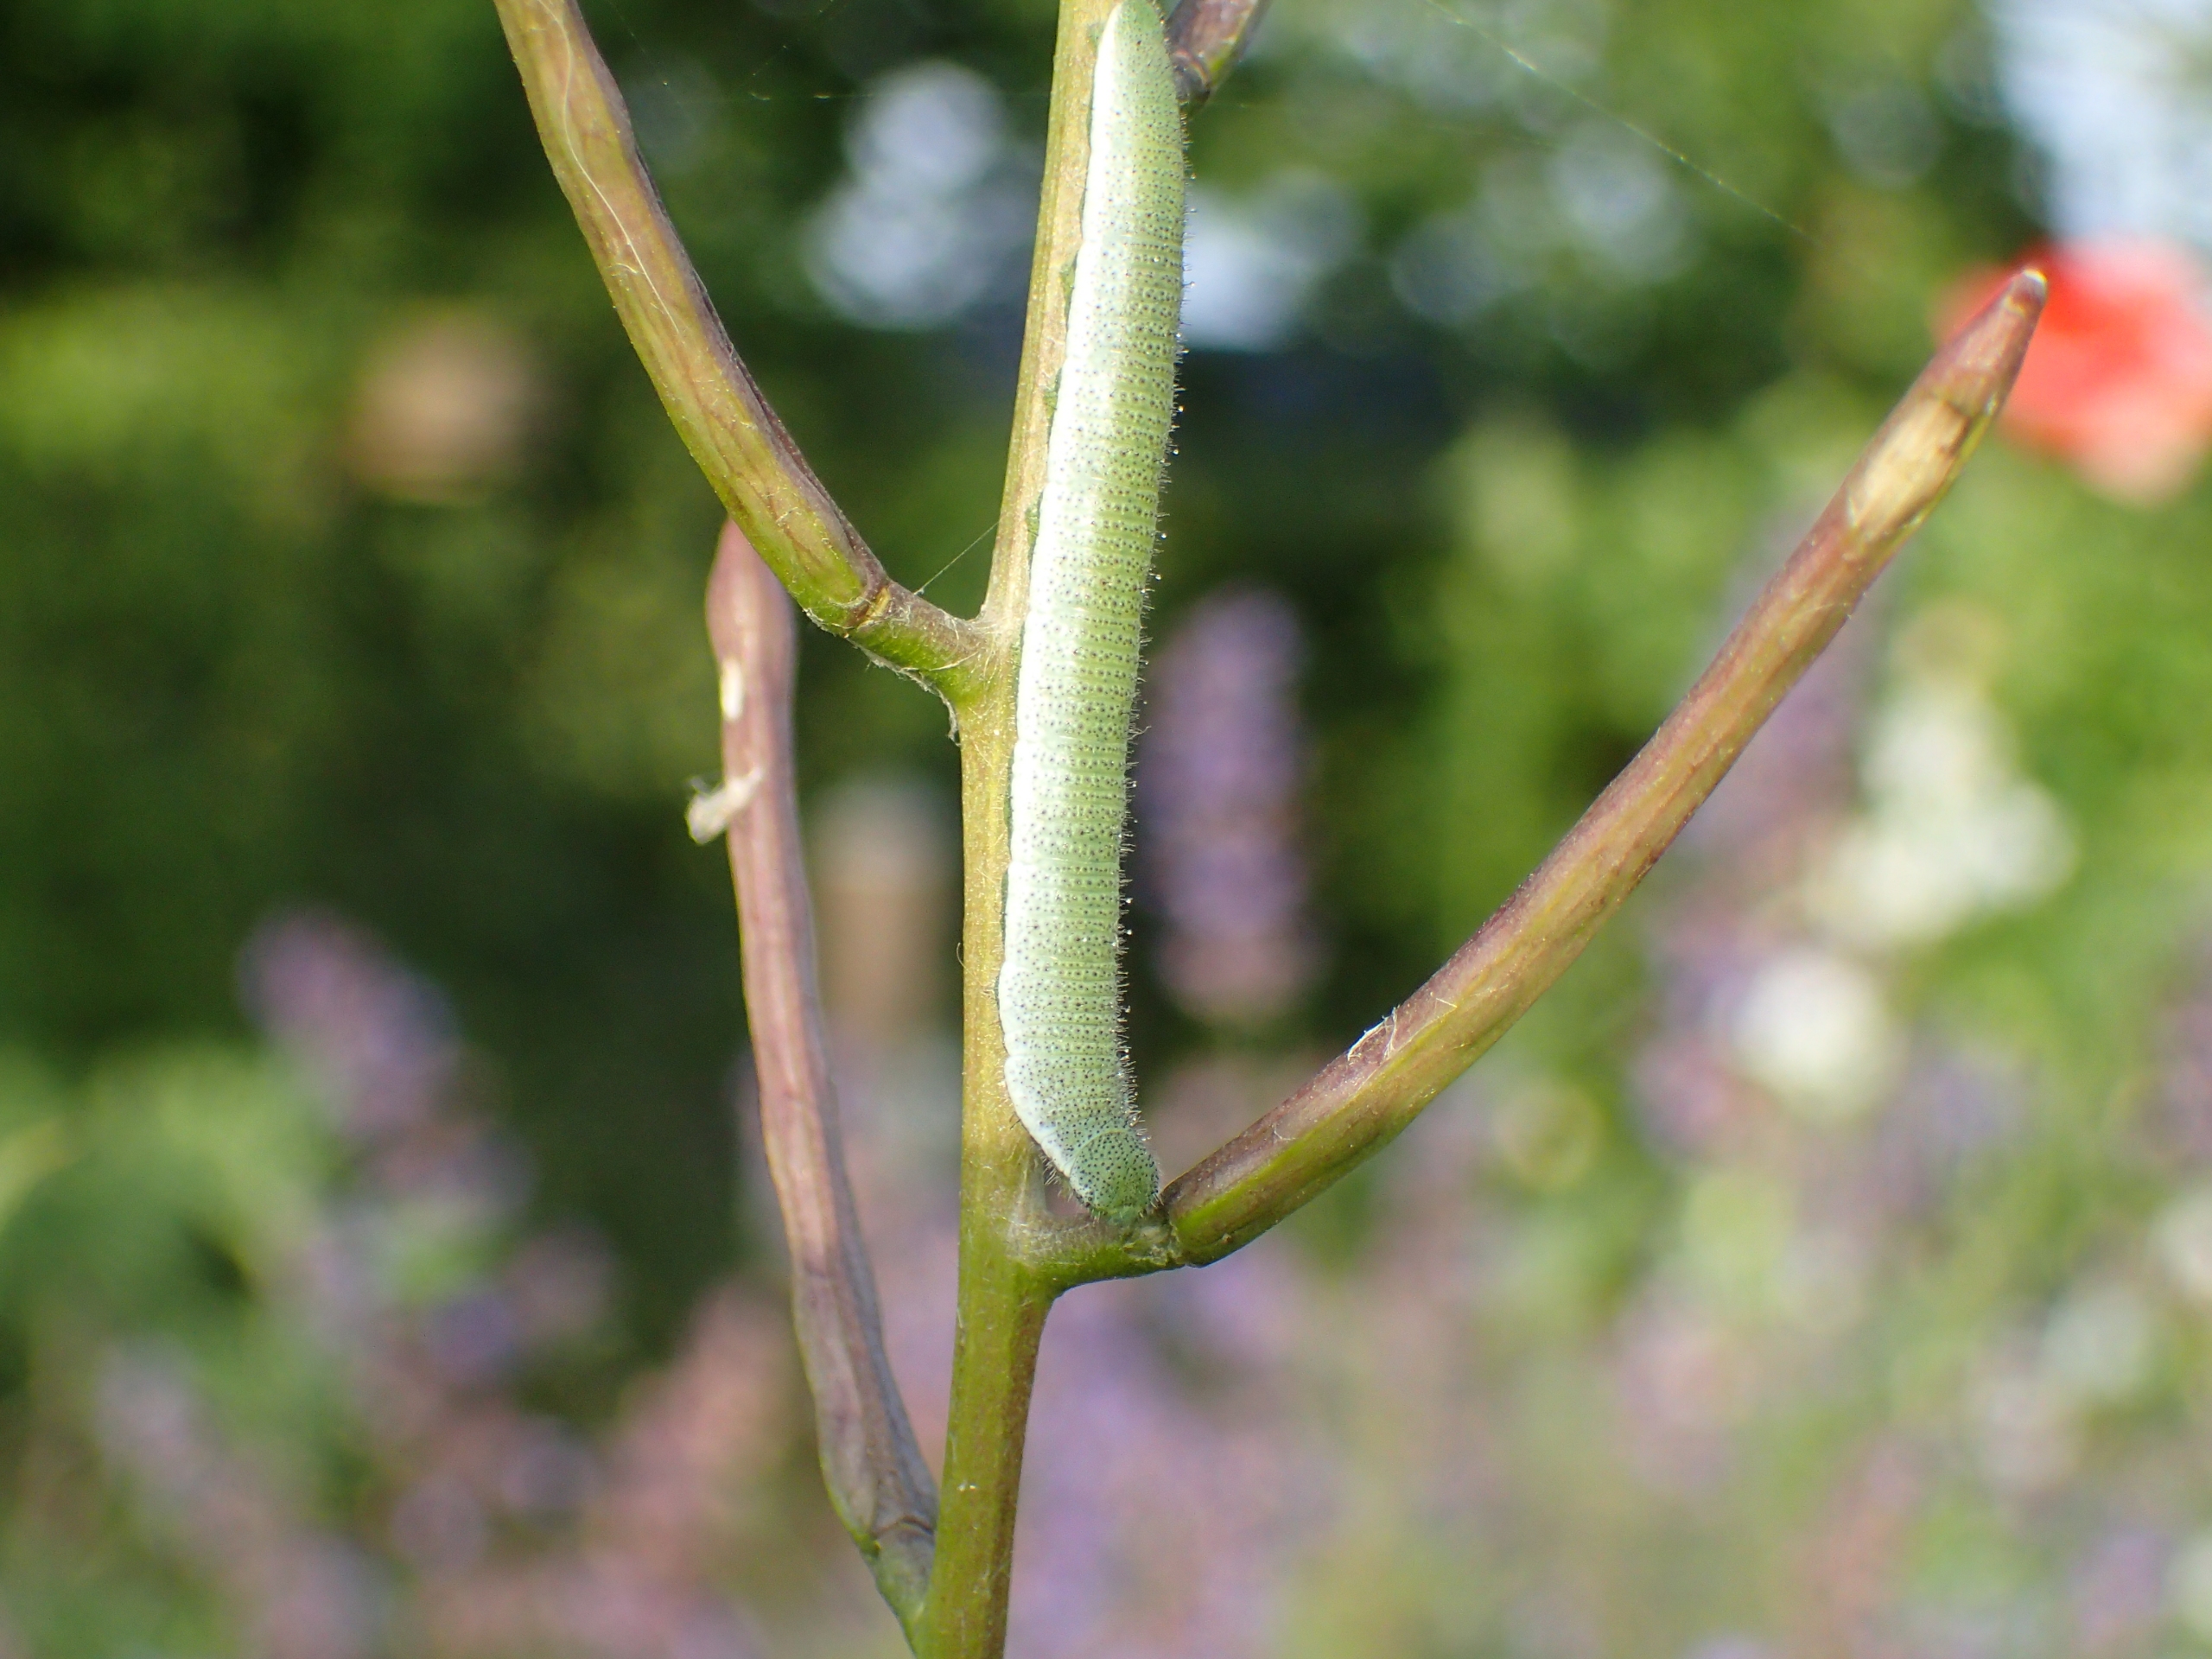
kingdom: Animalia
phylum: Arthropoda
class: Insecta
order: Lepidoptera
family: Pieridae
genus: Anthocharis
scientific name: Anthocharis cardamines
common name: Aurora
